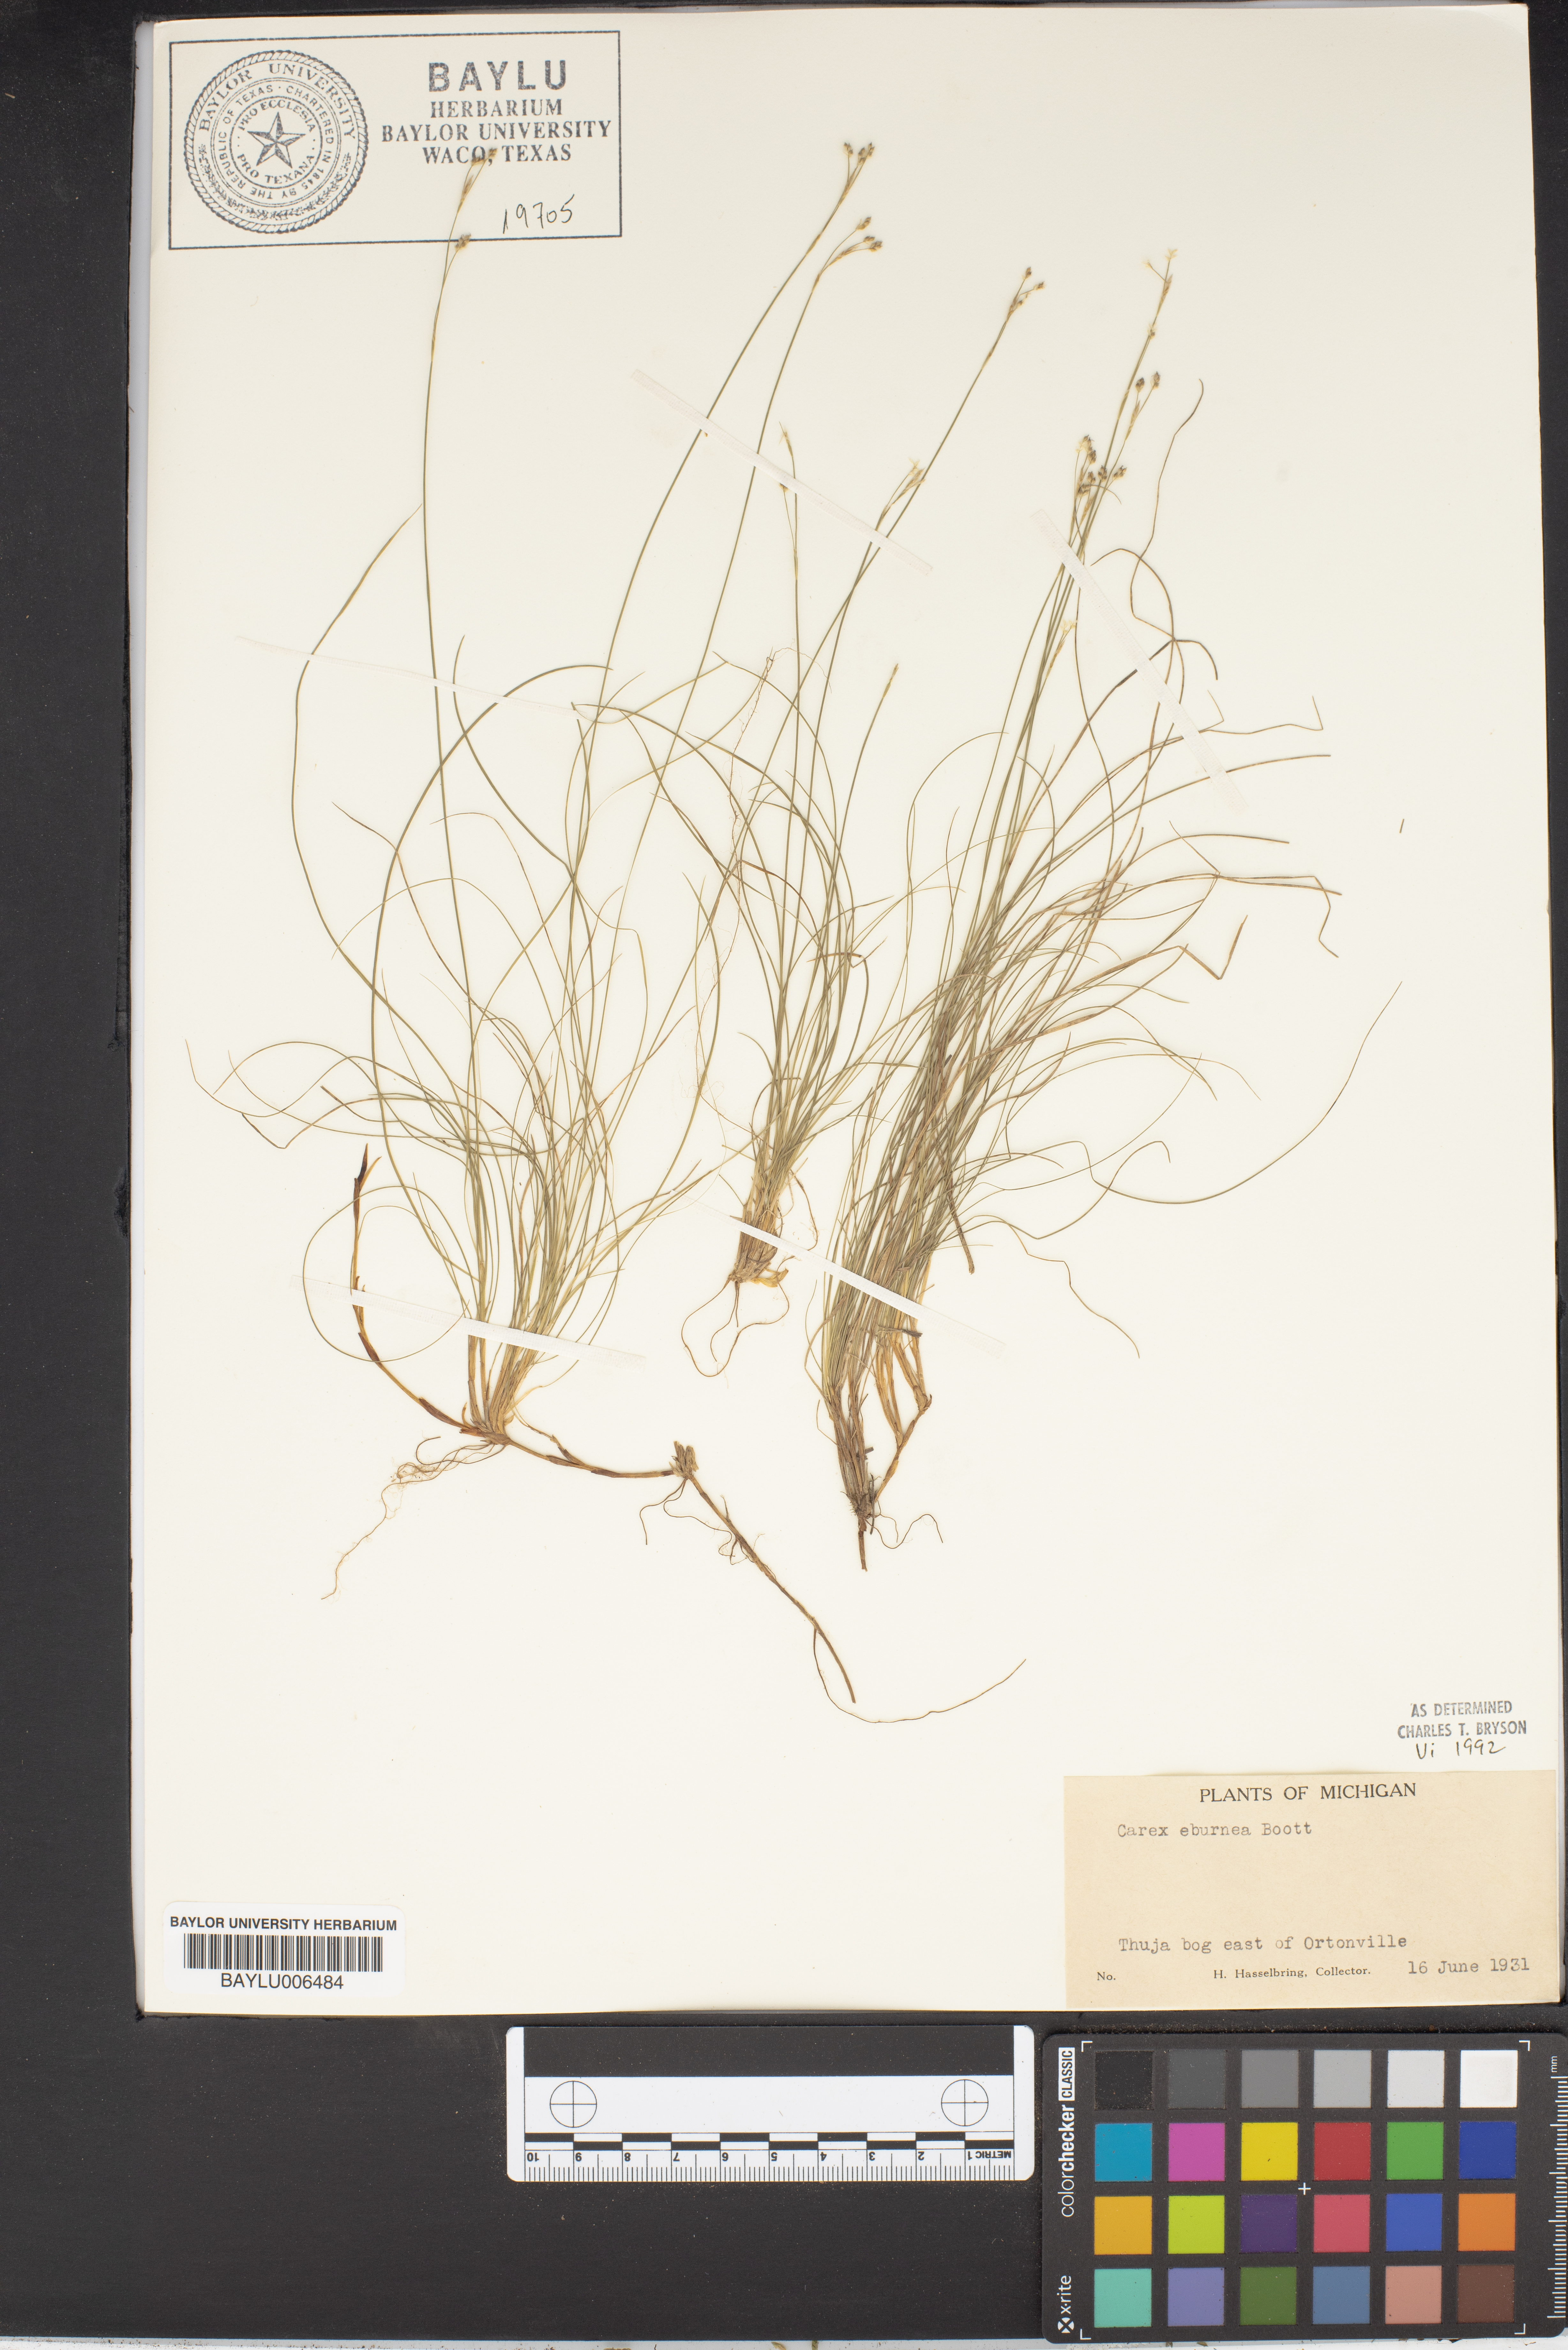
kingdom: Plantae
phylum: Tracheophyta
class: Liliopsida
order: Poales
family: Cyperaceae
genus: Carex
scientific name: Carex eburnea
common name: Bristle-leaved sedge
